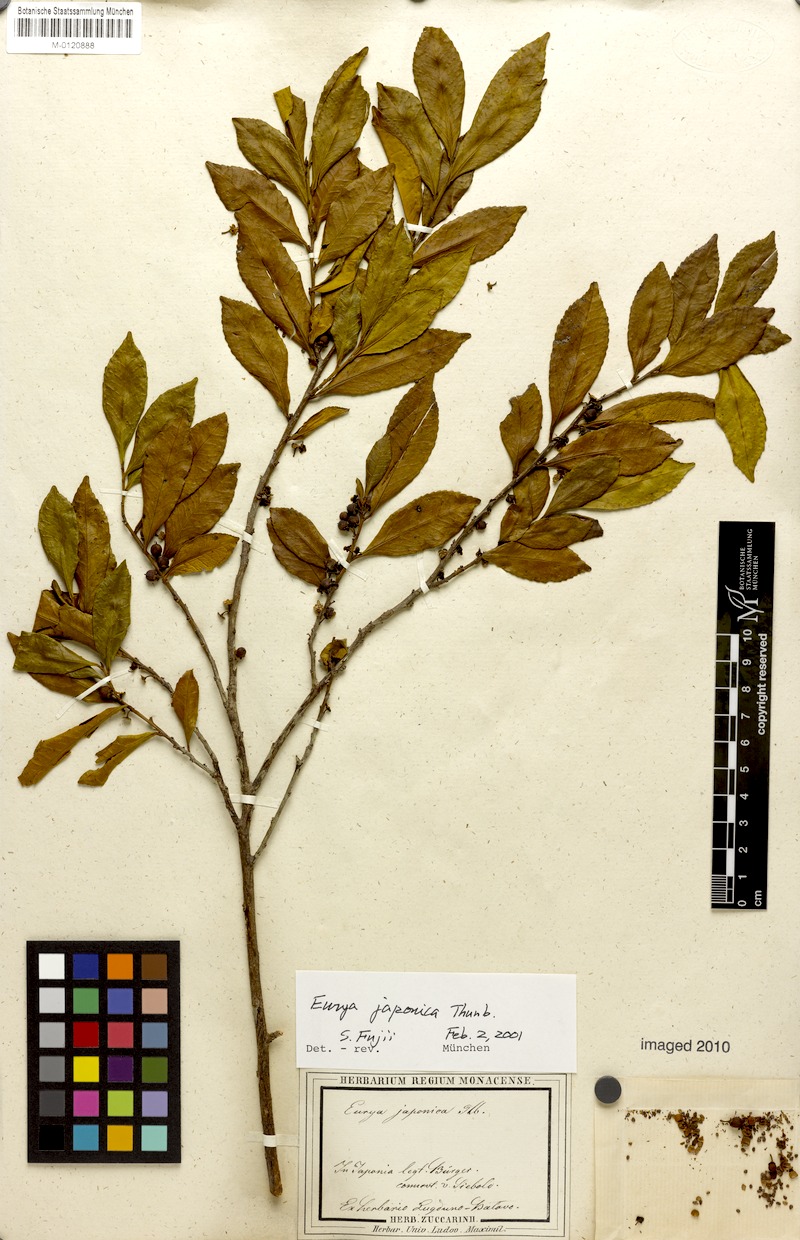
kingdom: Plantae
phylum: Tracheophyta
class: Magnoliopsida
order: Ericales
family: Pentaphylacaceae
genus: Eurya
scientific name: Eurya japonica
